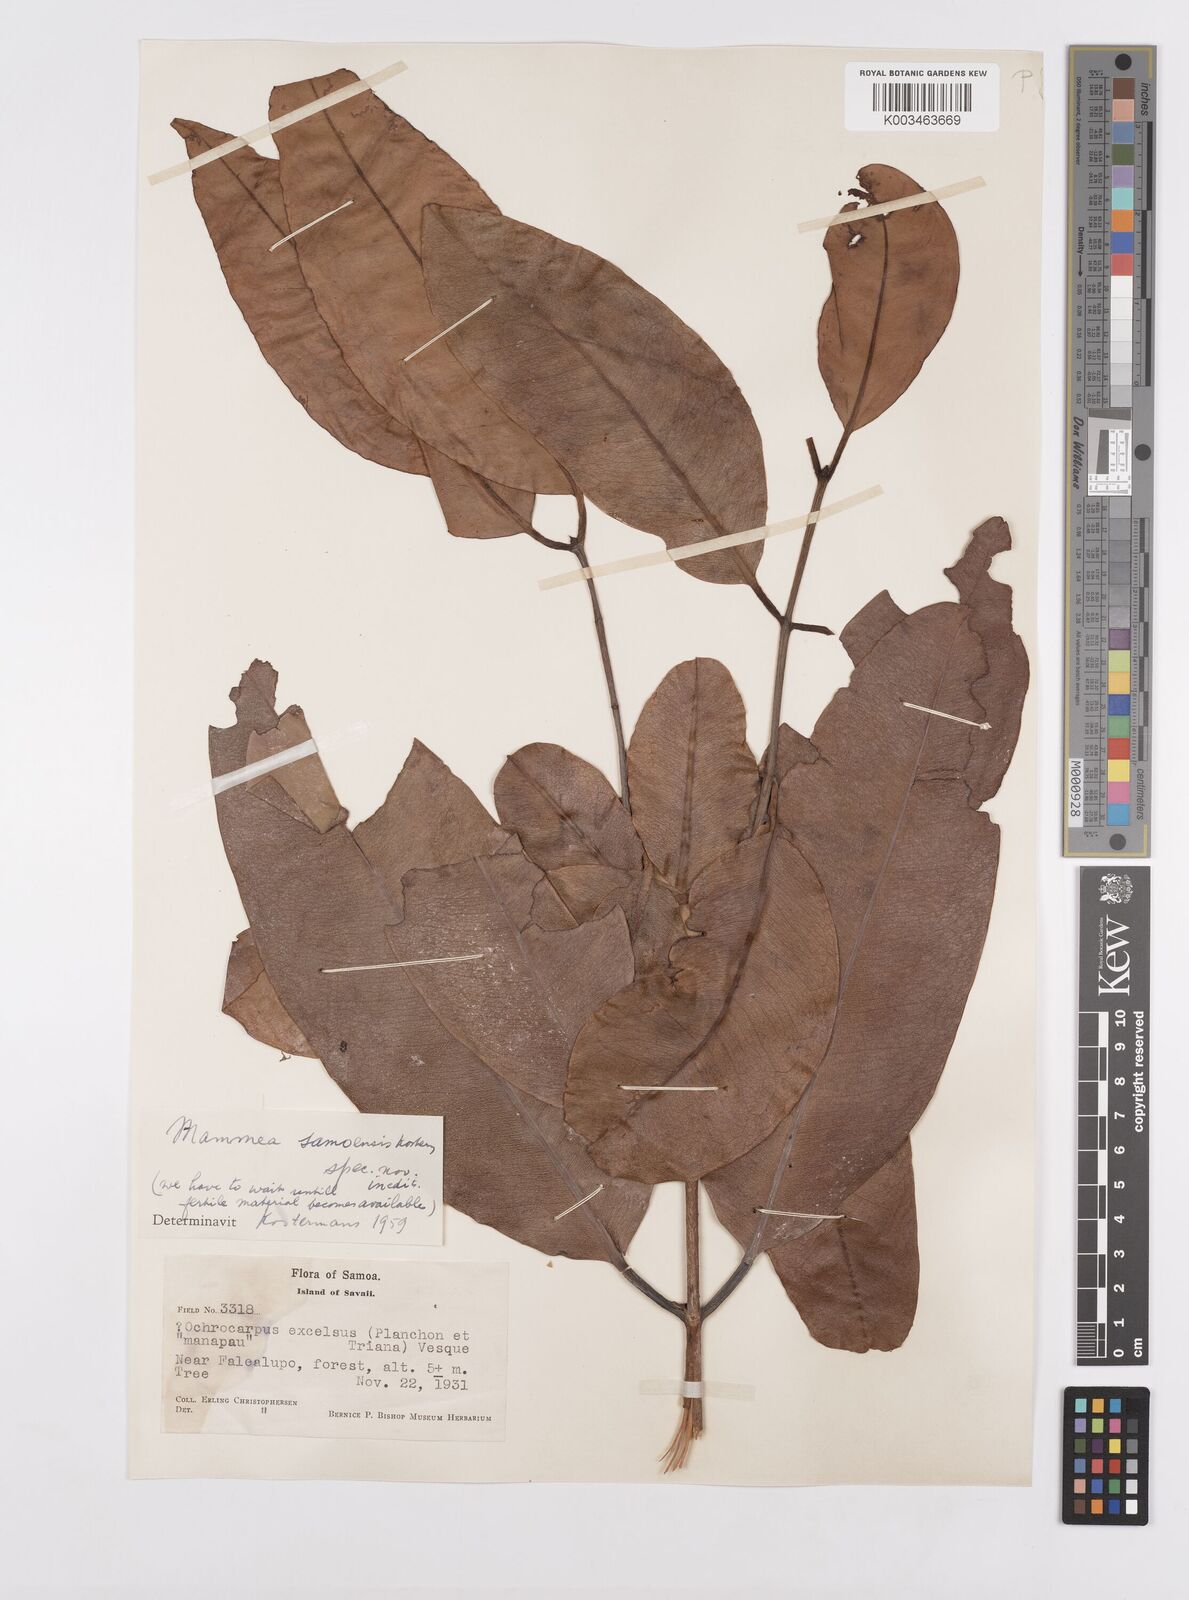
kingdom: Plantae
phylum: Tracheophyta
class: Magnoliopsida
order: Malpighiales
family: Calophyllaceae
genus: Mammea
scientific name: Mammea glauca
